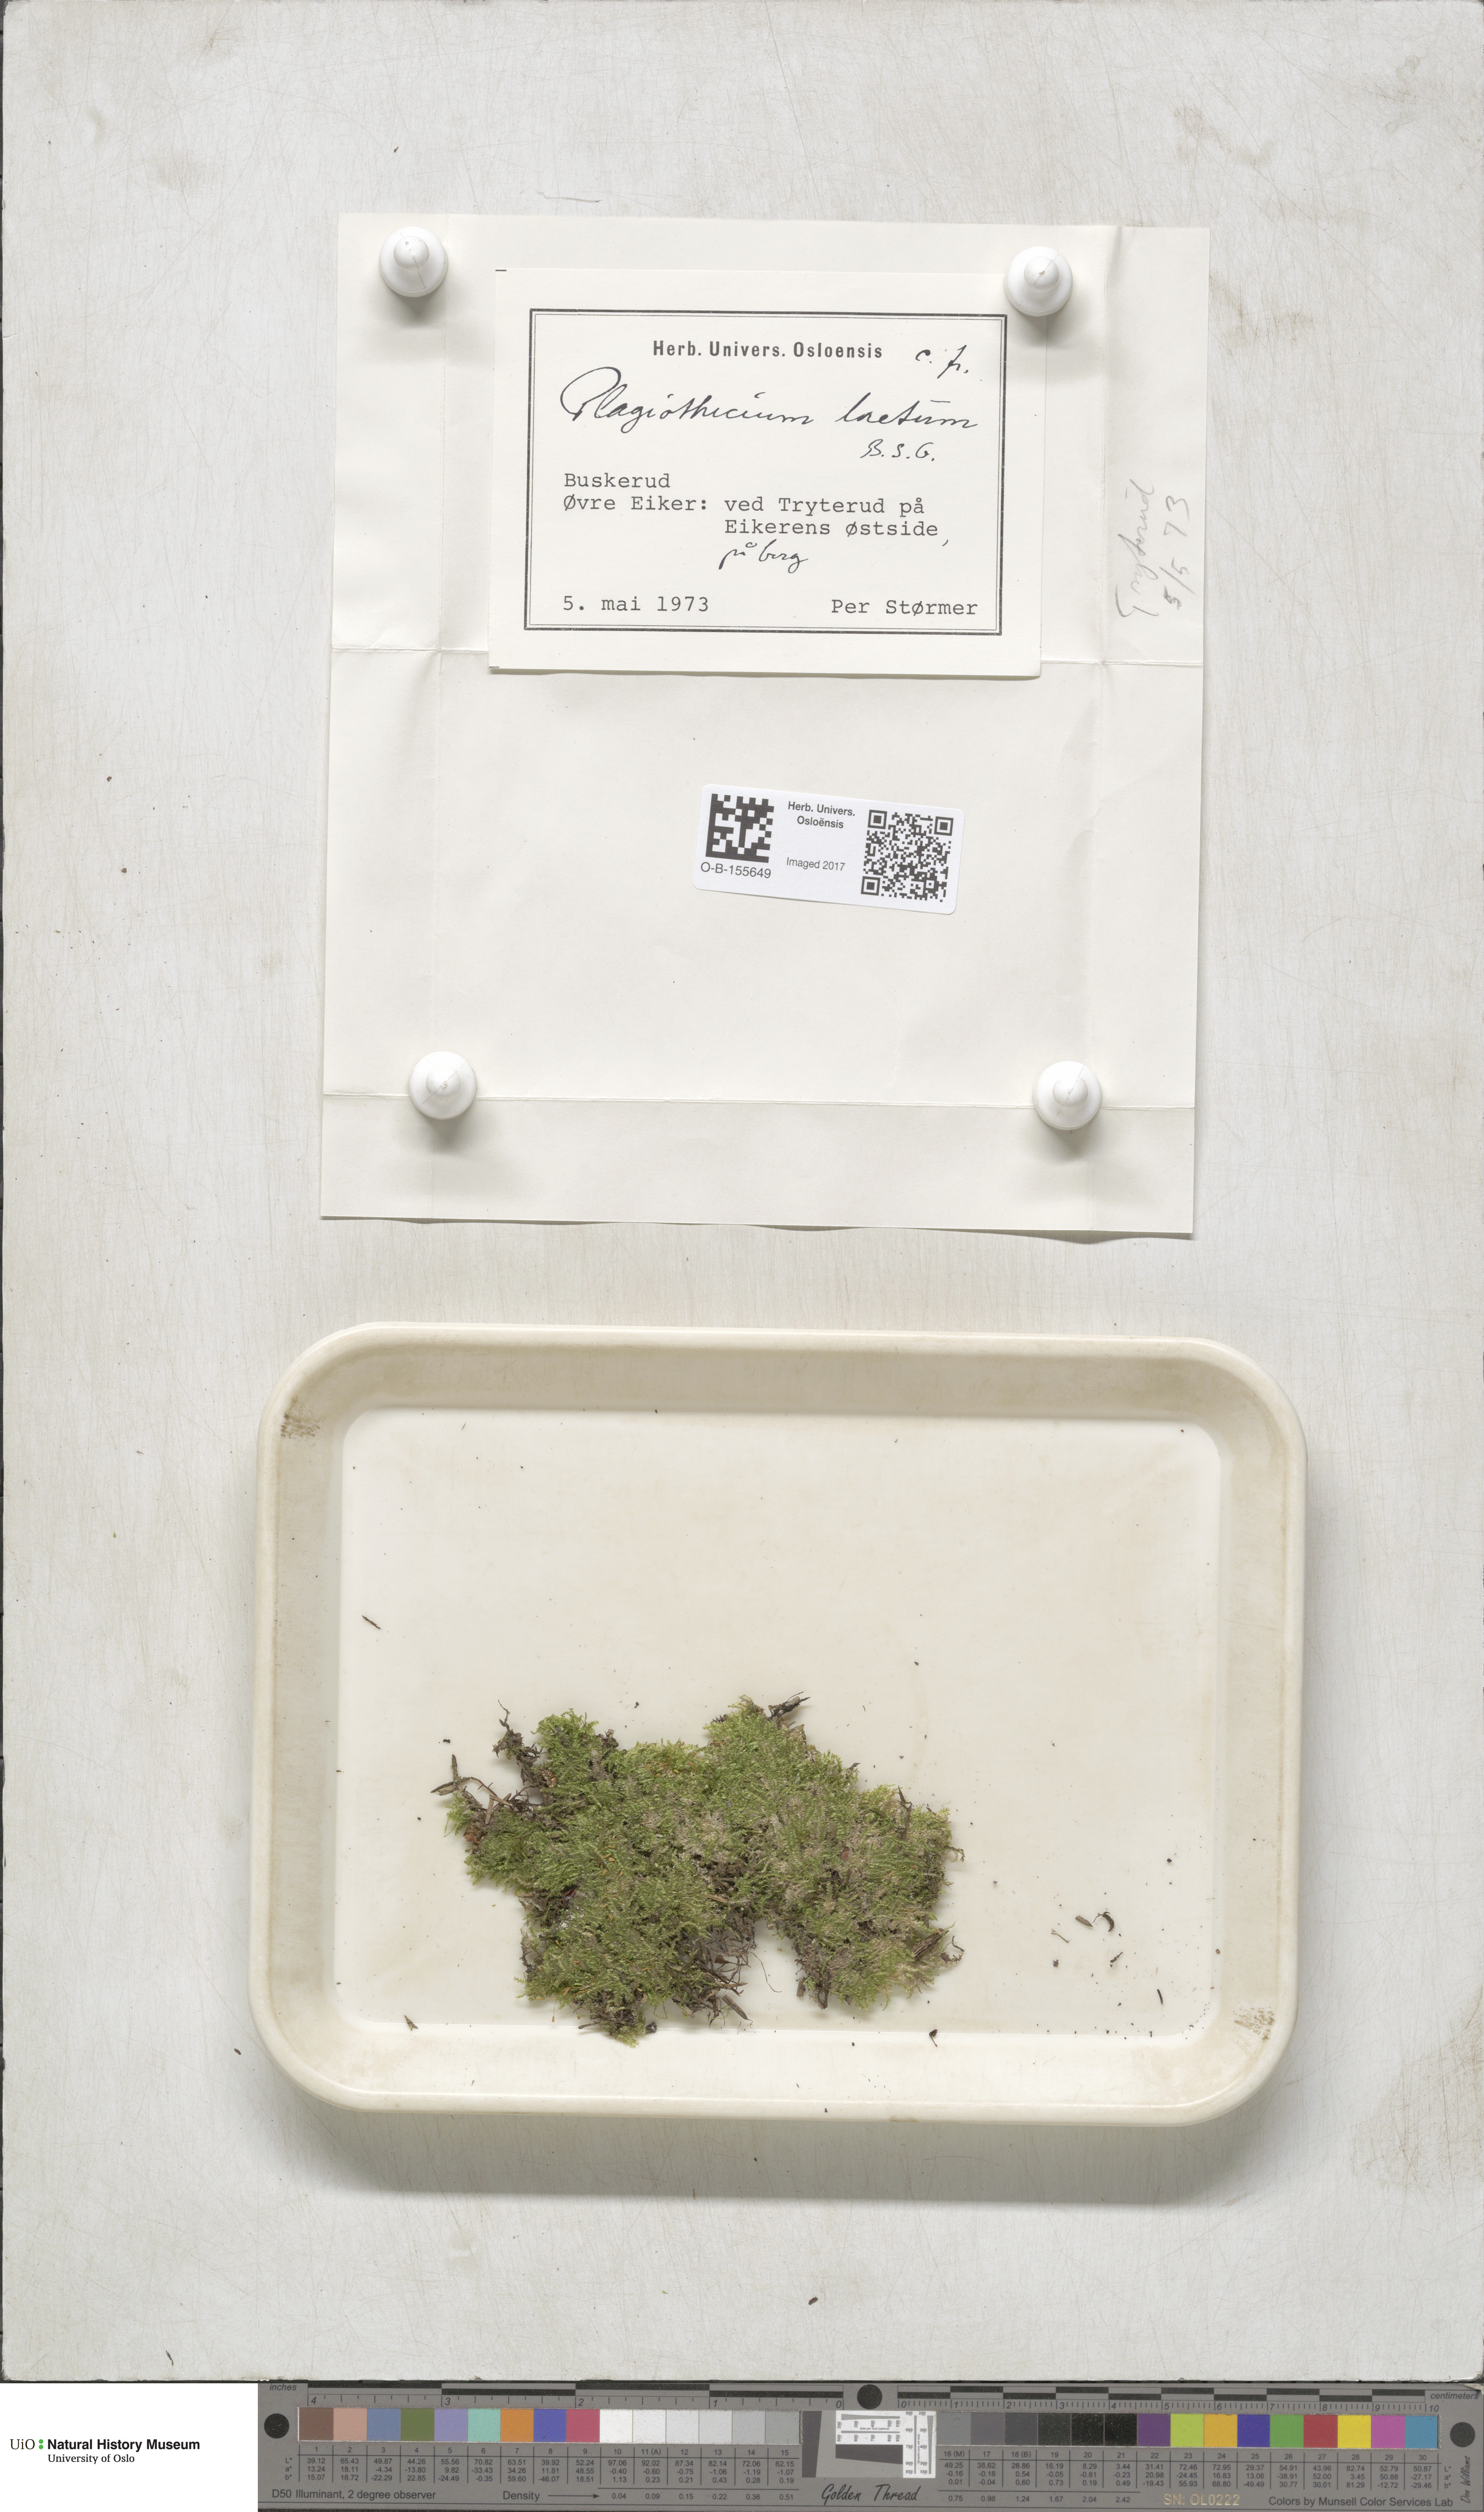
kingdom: Plantae
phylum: Bryophyta
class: Bryopsida
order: Hypnales
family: Plagiotheciaceae
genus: Plagiothecium
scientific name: Plagiothecium laetum
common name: Bright silk moss
